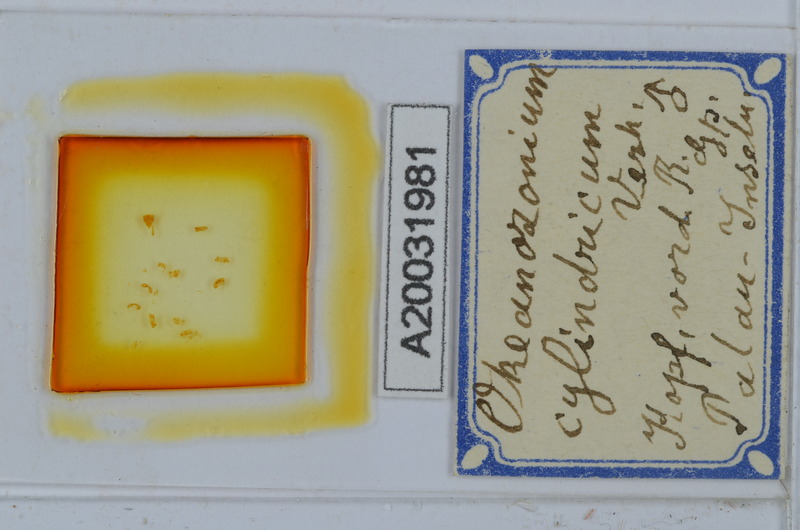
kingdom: Animalia
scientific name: Animalia
